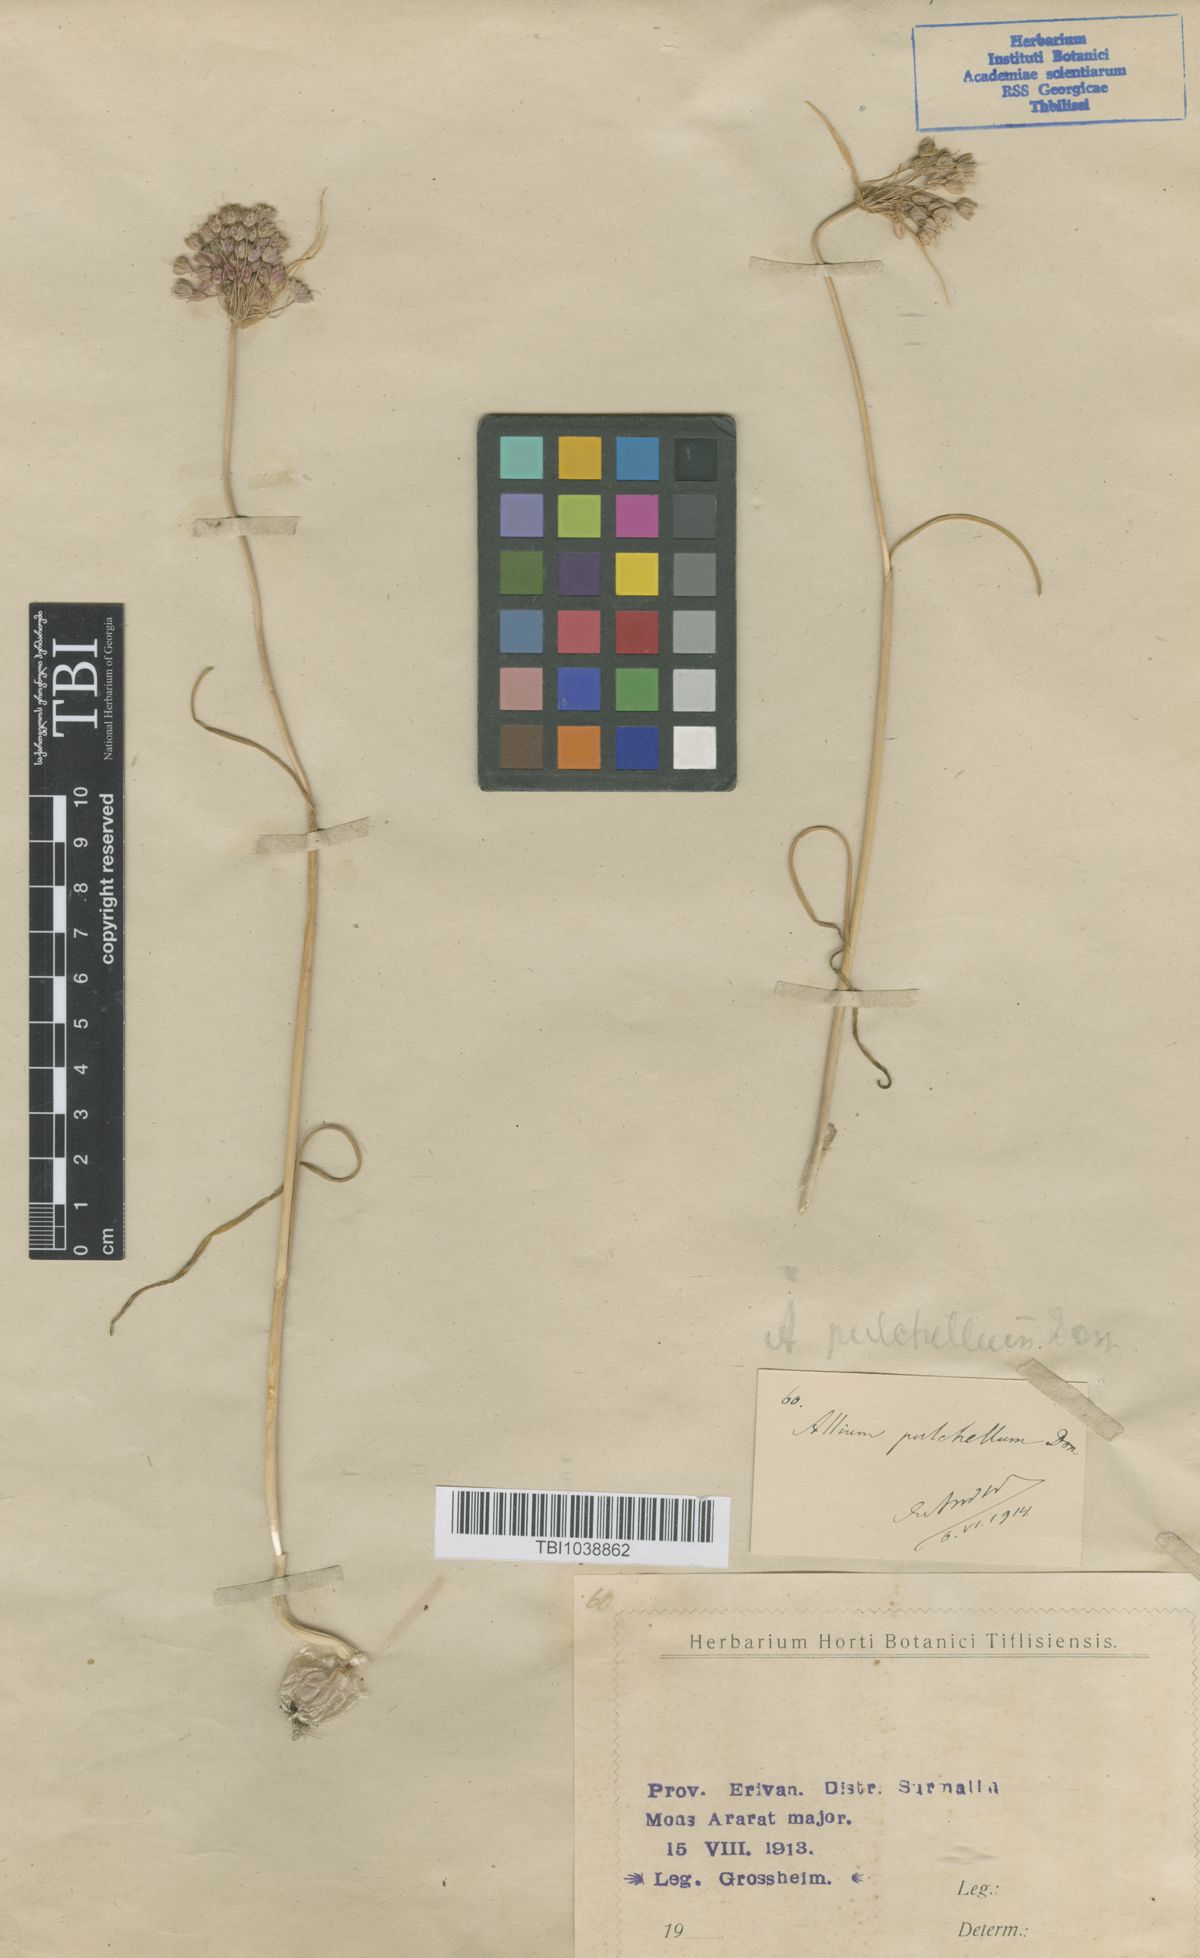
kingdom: Plantae
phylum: Tracheophyta
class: Liliopsida
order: Asparagales
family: Amaryllidaceae
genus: Allium
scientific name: Allium flavum
